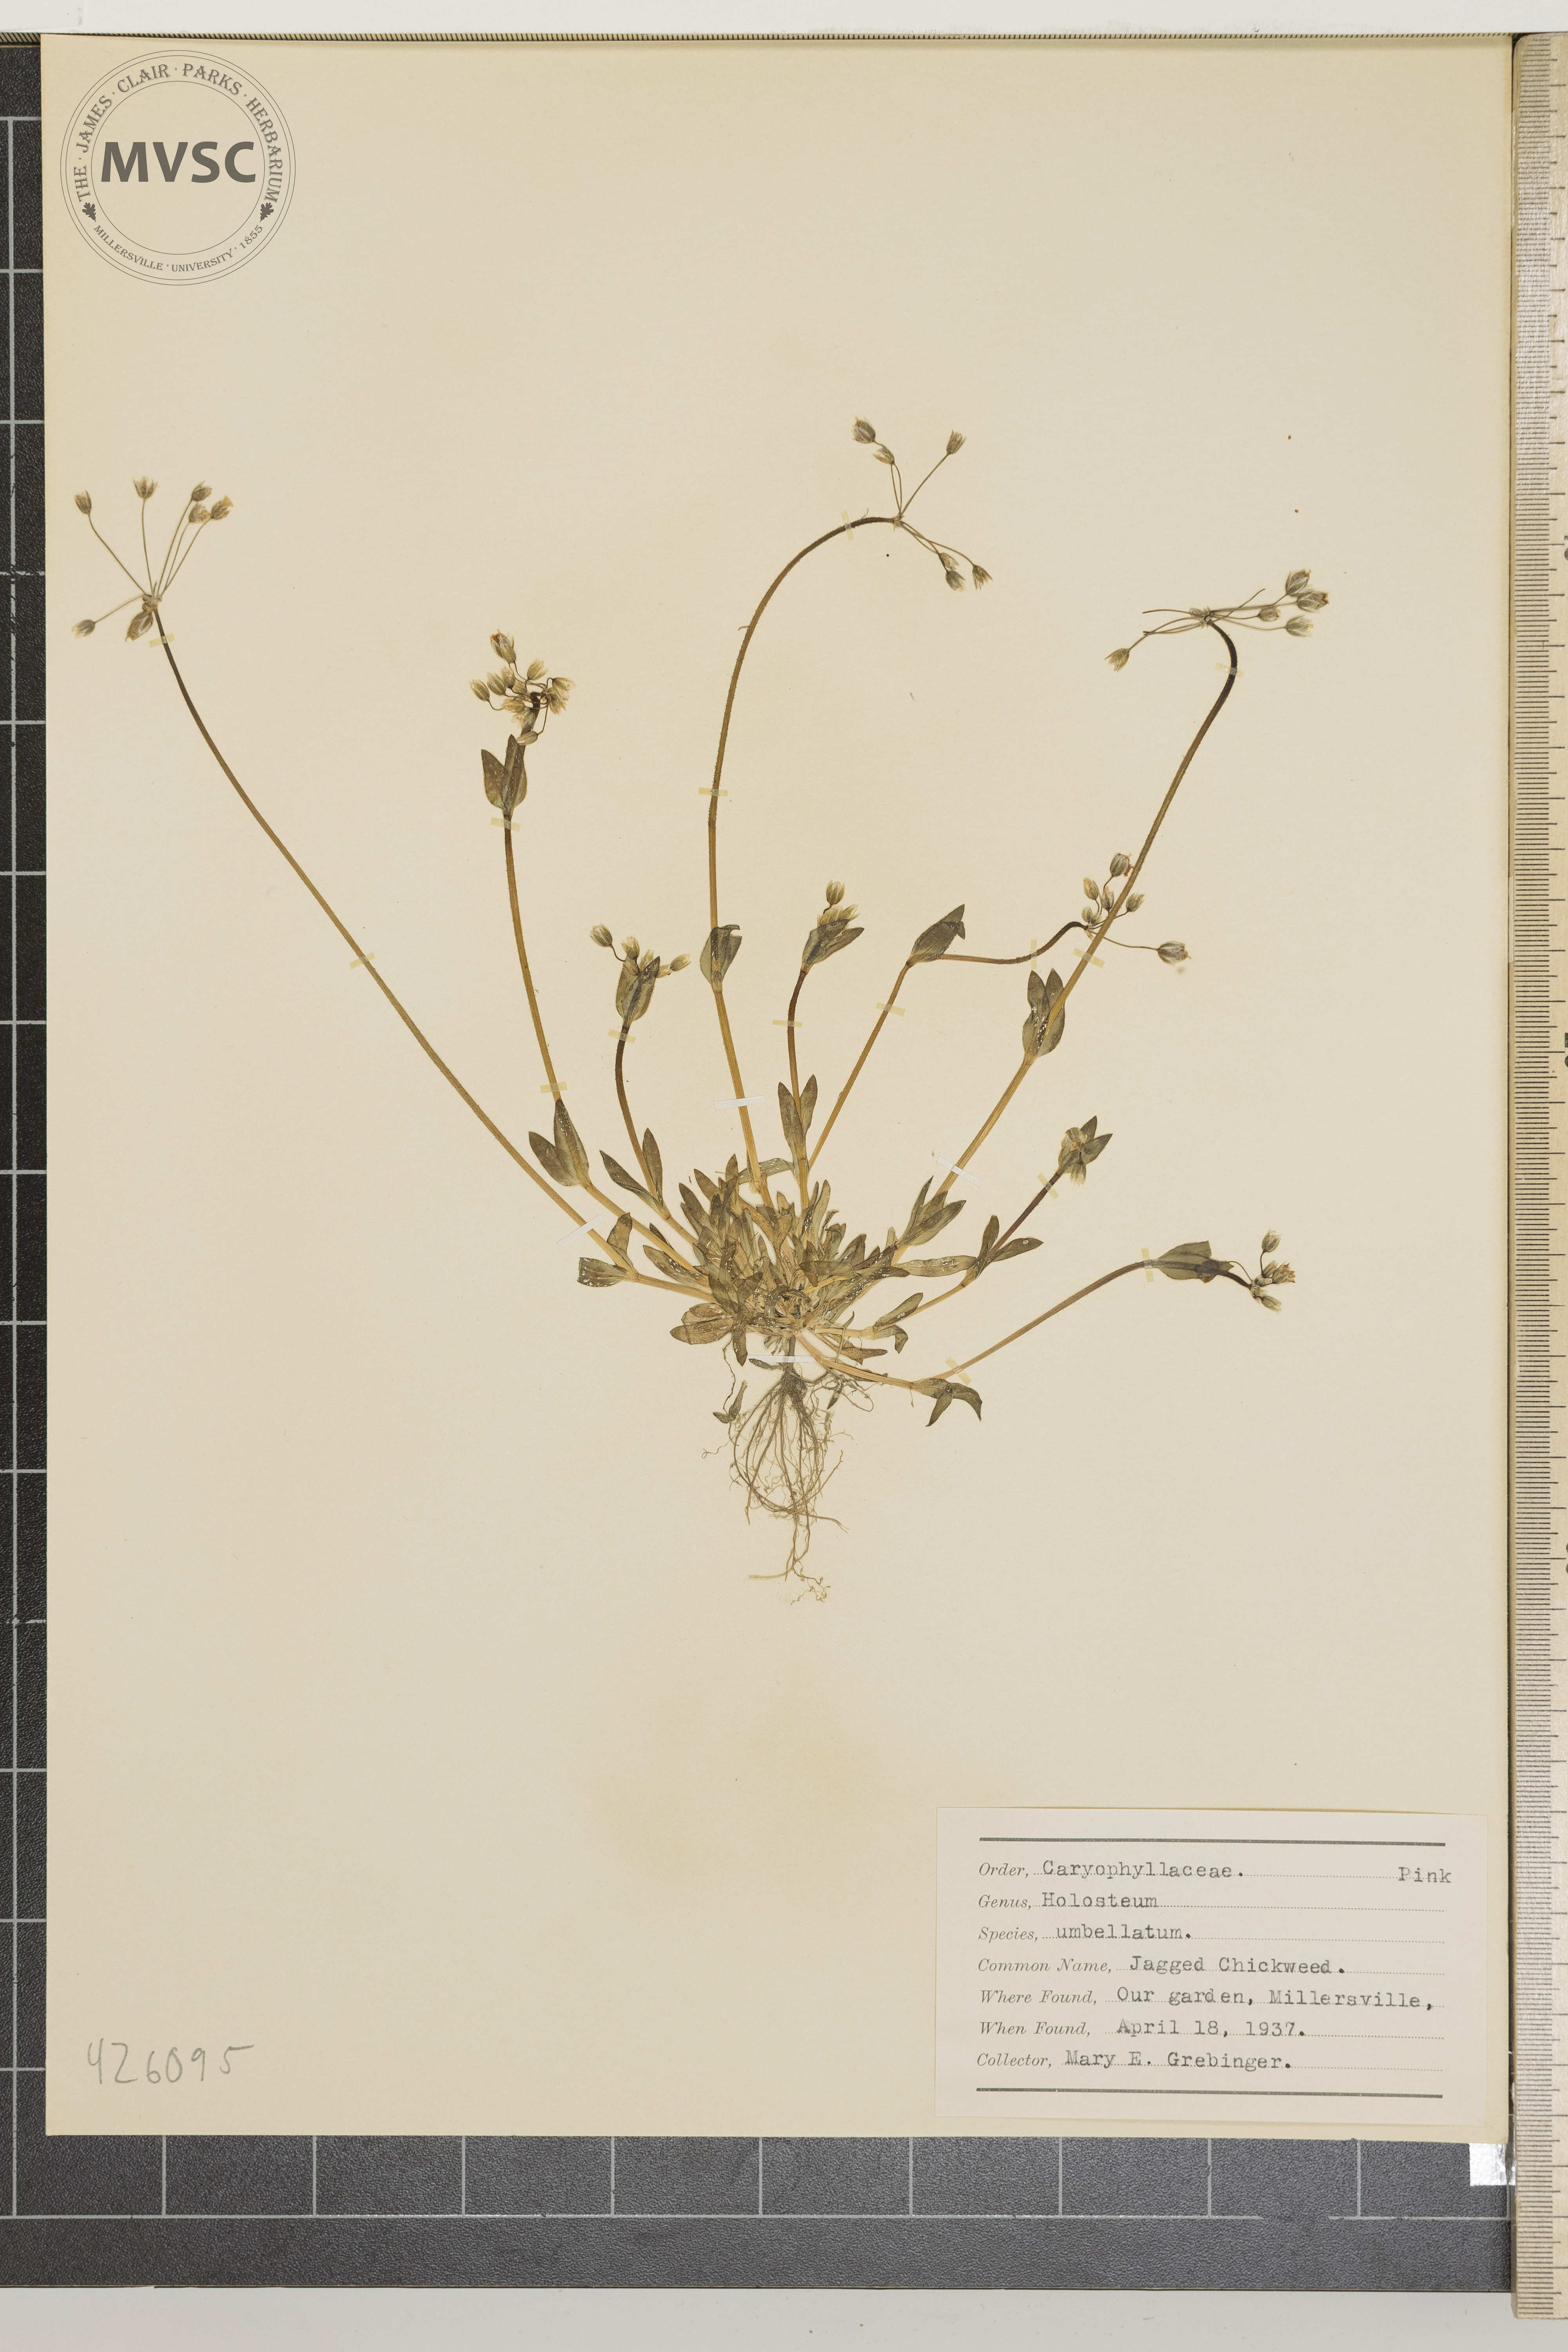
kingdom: Plantae
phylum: Tracheophyta
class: Magnoliopsida
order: Caryophyllales
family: Caryophyllaceae
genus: Holosteum
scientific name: Holosteum umbellatum
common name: Jagged Chickweed
